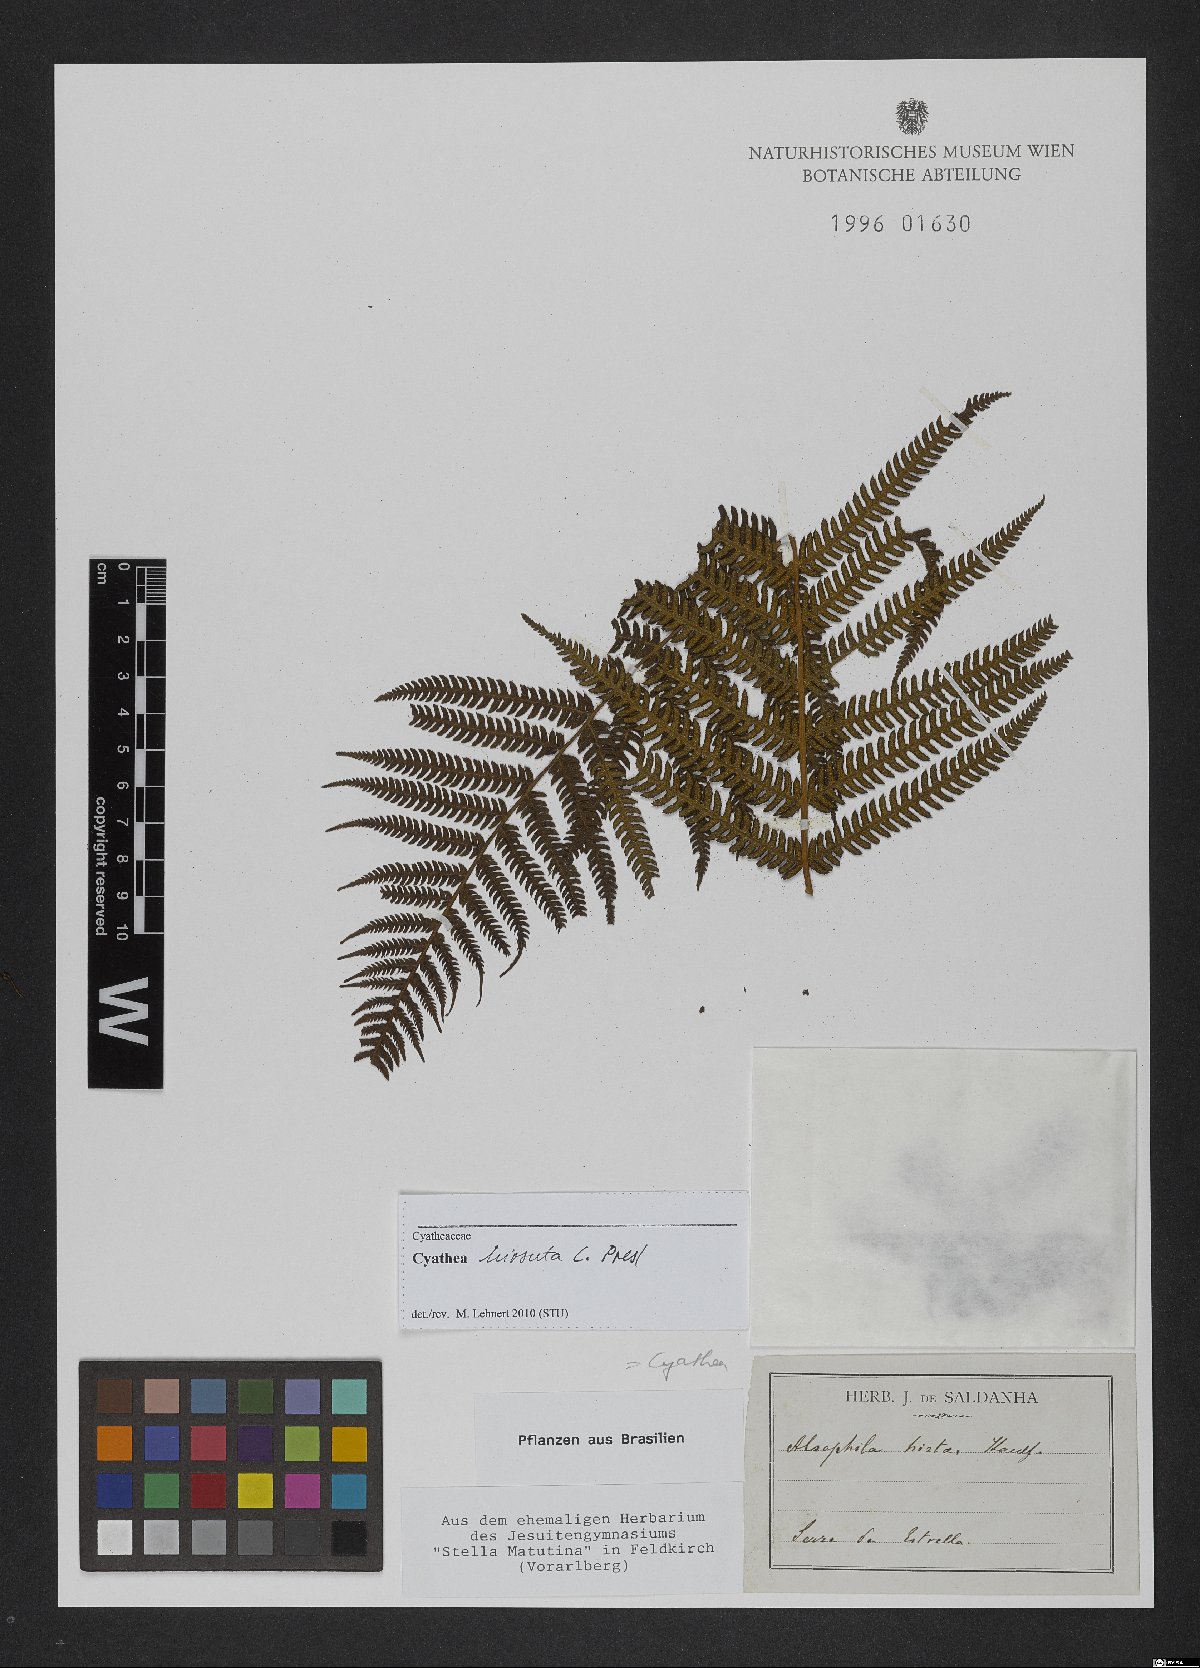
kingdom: Plantae
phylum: Tracheophyta
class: Polypodiopsida
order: Cyatheales
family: Cyatheaceae
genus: Cyathea
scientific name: Cyathea hirsuta
